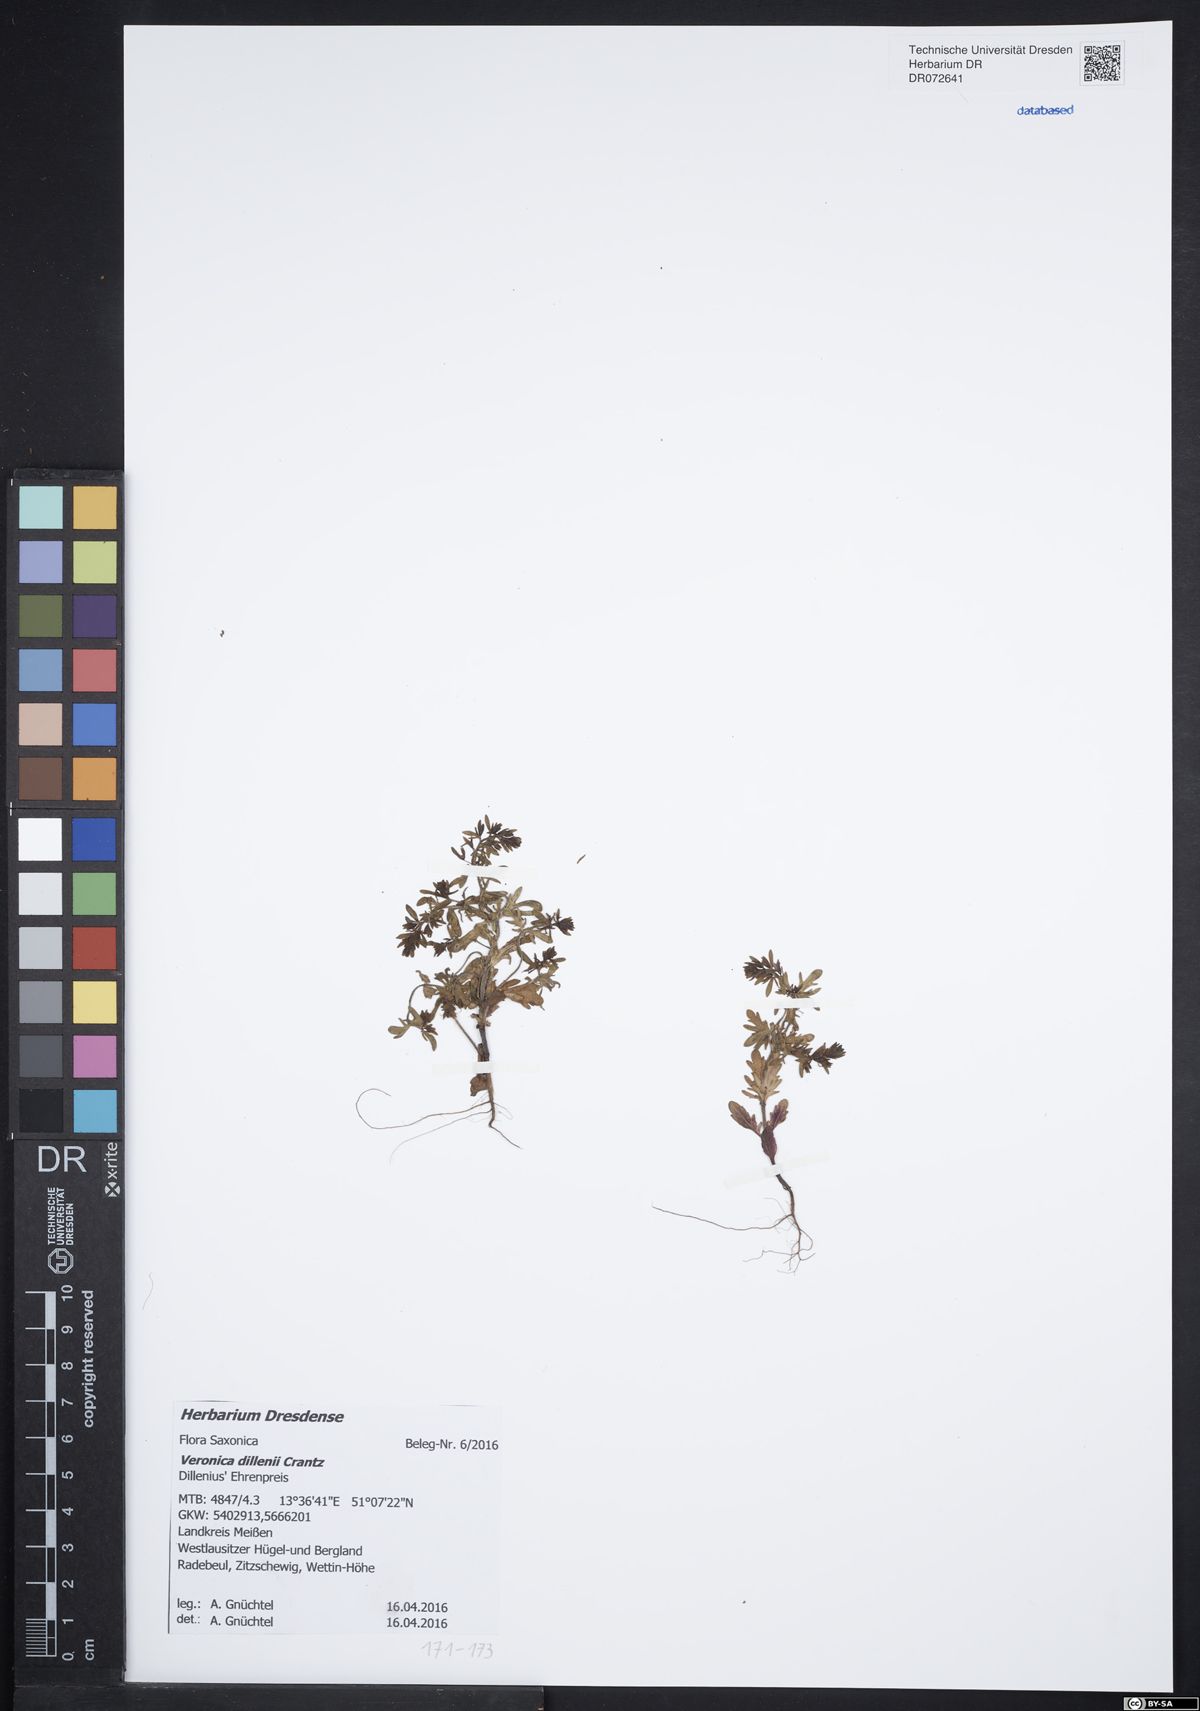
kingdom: Plantae
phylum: Tracheophyta
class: Magnoliopsida
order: Lamiales
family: Plantaginaceae
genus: Veronica
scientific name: Veronica dillenii
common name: Dillenius' speedwell
